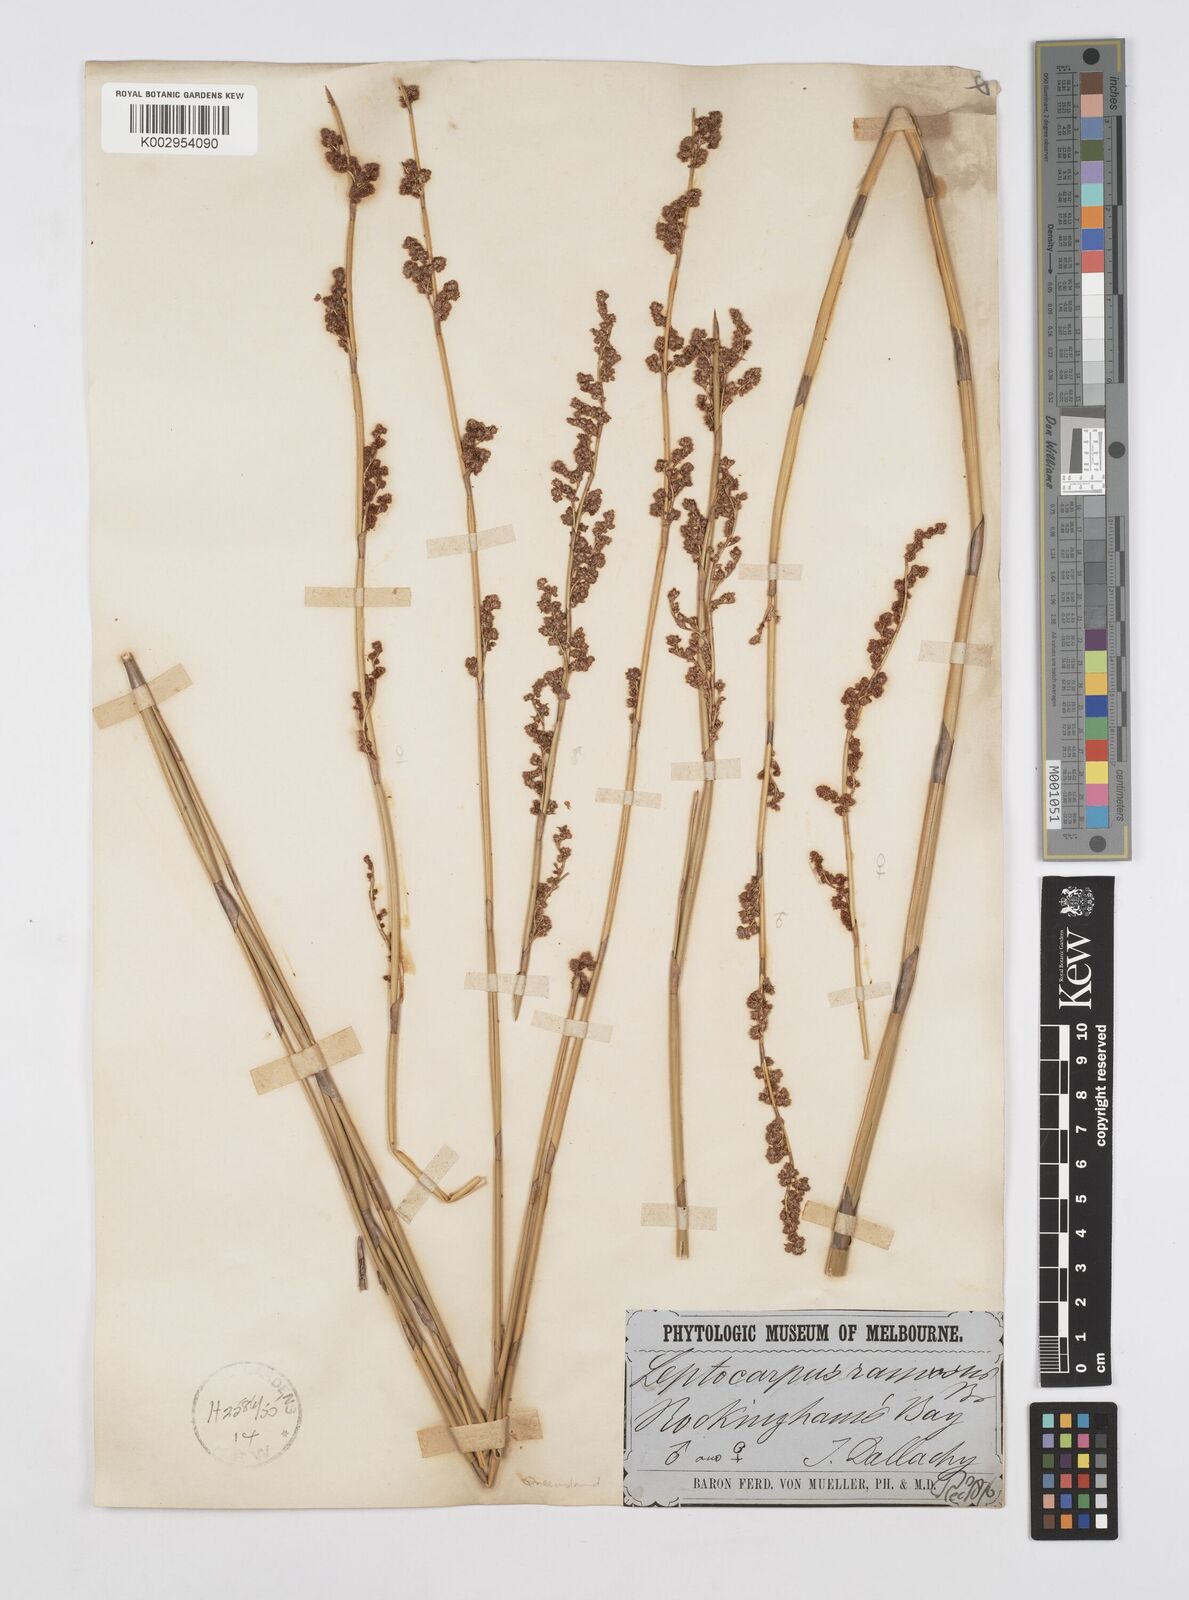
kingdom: Plantae
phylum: Tracheophyta
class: Liliopsida
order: Poales
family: Restionaceae
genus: Dapsilanthus
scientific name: Dapsilanthus ramosus
